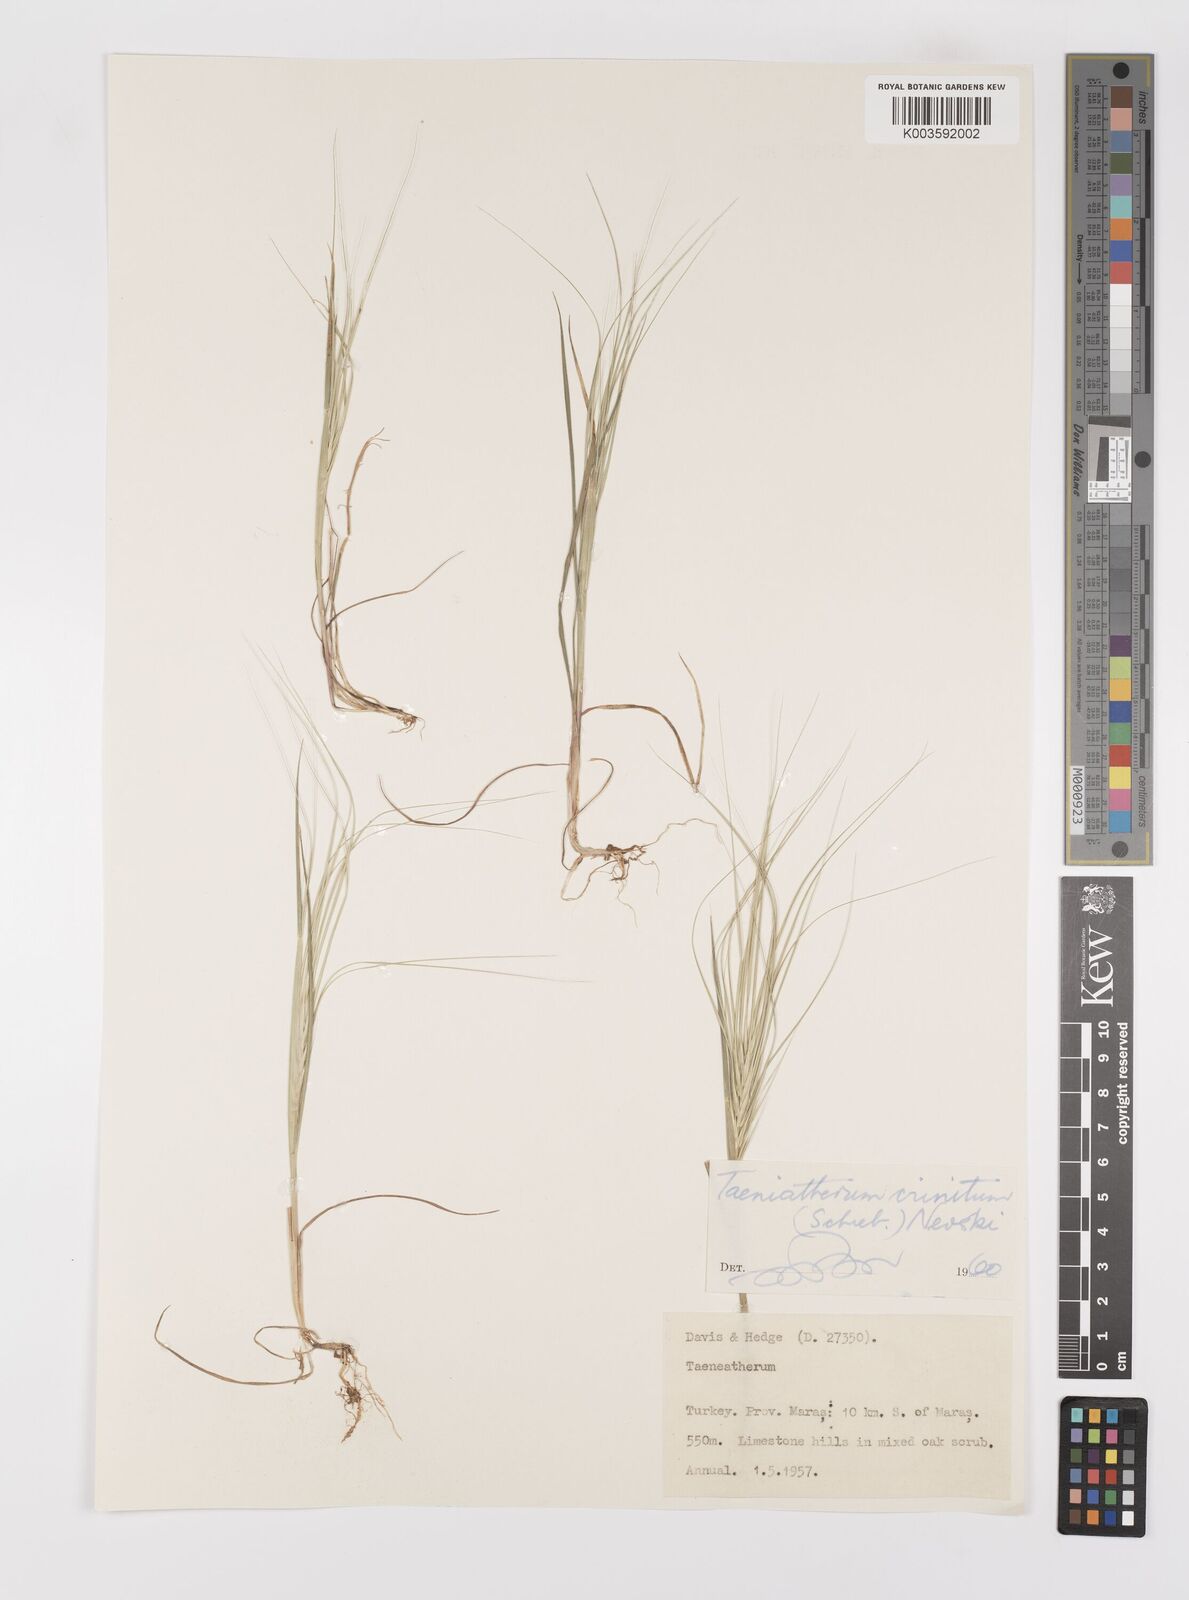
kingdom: Plantae
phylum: Tracheophyta
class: Liliopsida
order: Poales
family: Poaceae
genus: Taeniatherum
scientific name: Taeniatherum caput-medusae
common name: Medusahead
